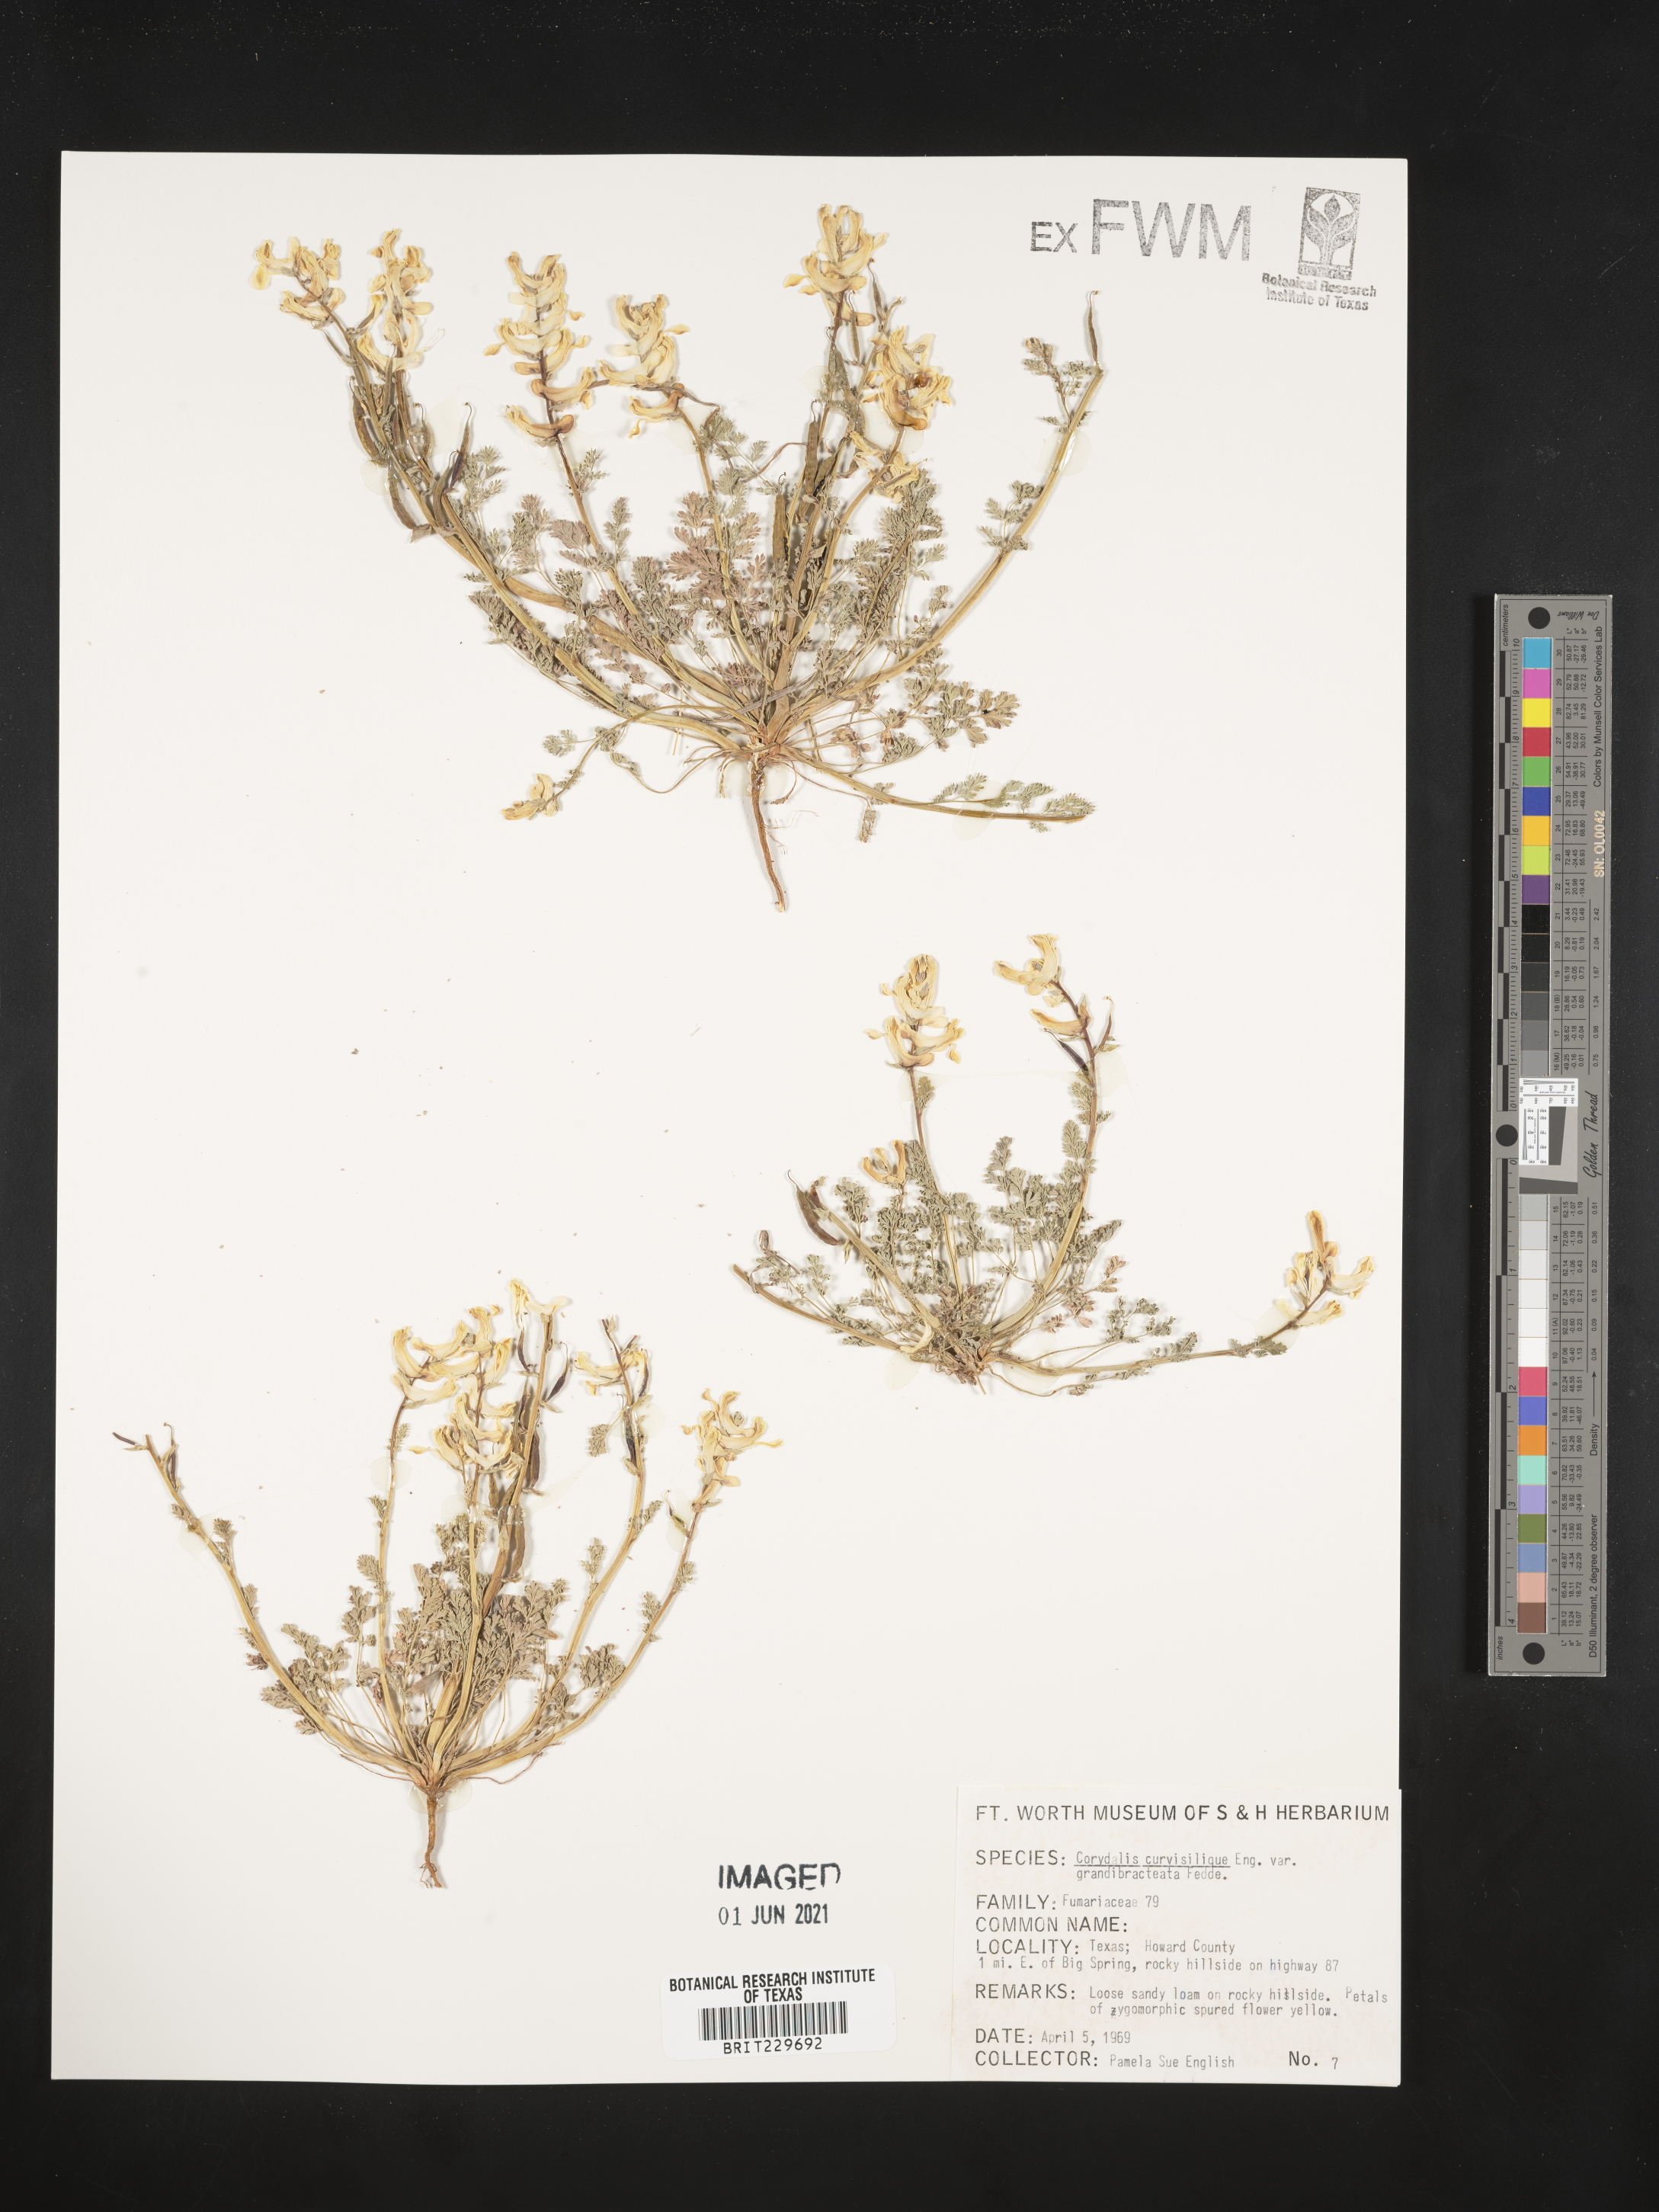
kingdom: Plantae
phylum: Tracheophyta
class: Magnoliopsida
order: Ranunculales
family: Papaveraceae
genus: Corydalis
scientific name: Corydalis curvisiliqua
